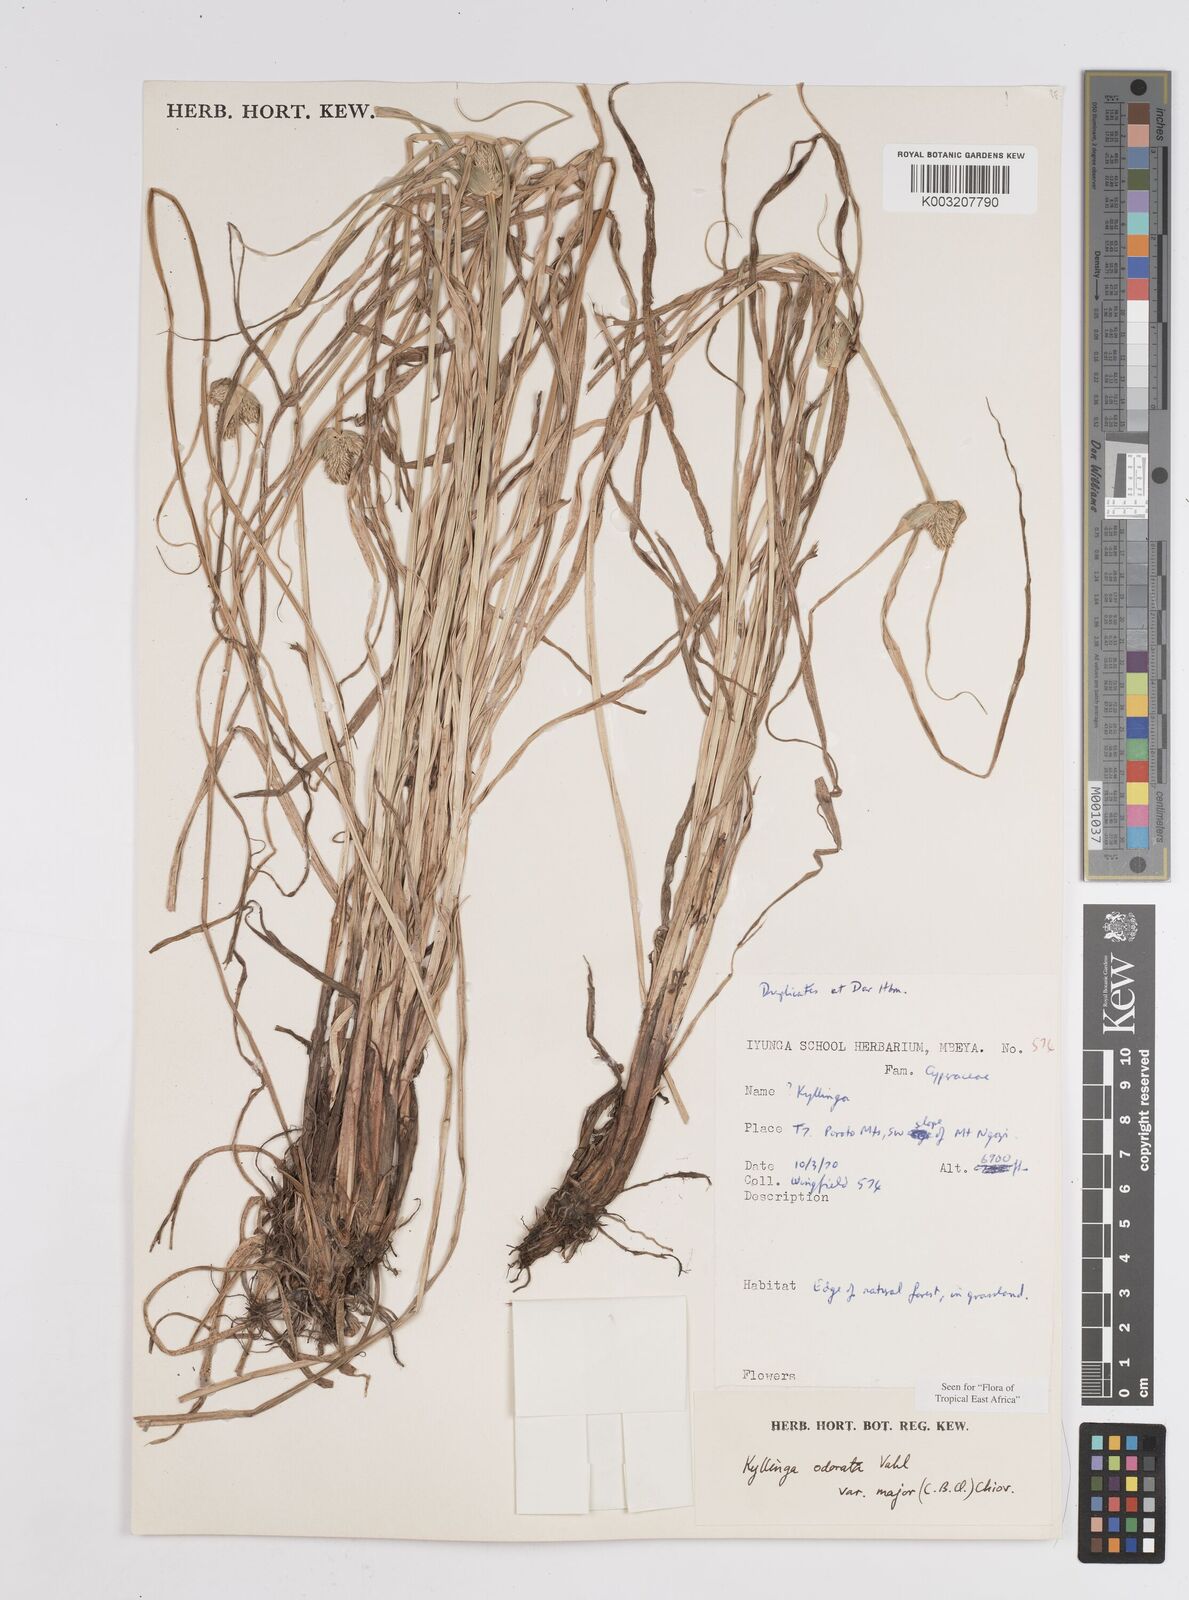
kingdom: Plantae
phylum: Tracheophyta
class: Liliopsida
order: Poales
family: Cyperaceae
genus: Cyperus
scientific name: Cyperus
